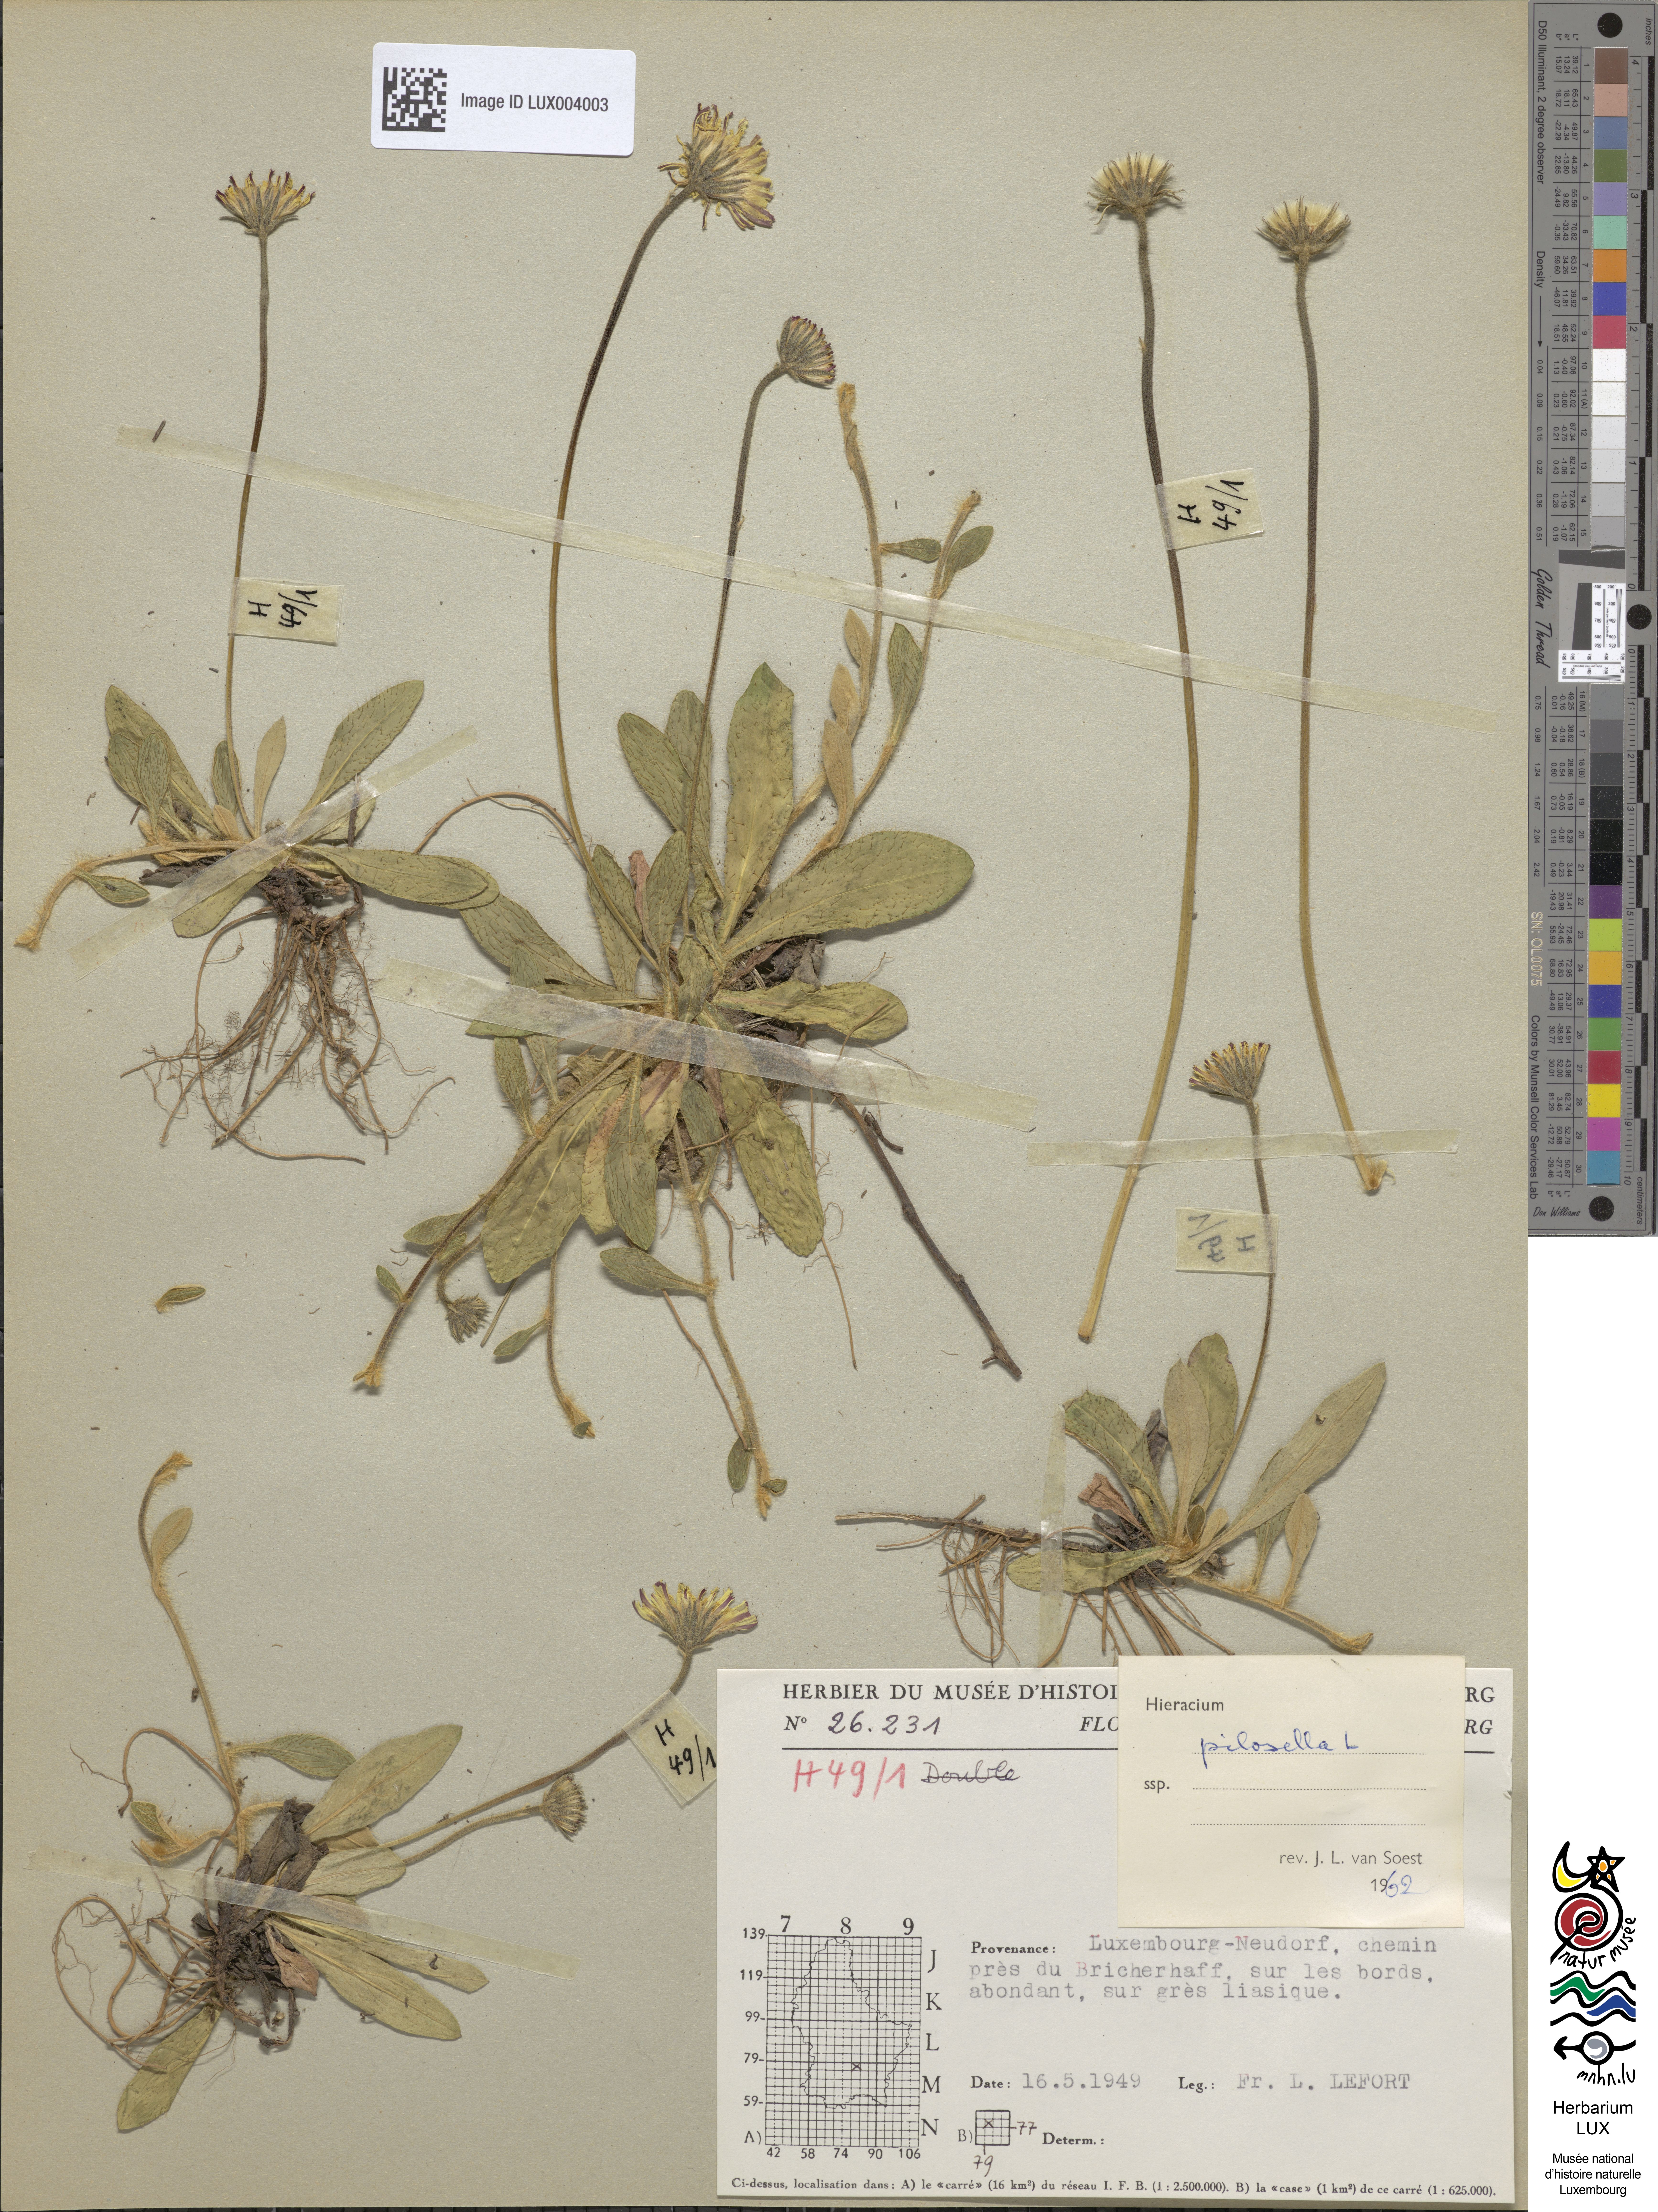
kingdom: Plantae
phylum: Tracheophyta
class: Magnoliopsida
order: Asterales
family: Asteraceae
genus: Pilosella
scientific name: Pilosella officinarum
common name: Mouse-ear hawkweed
